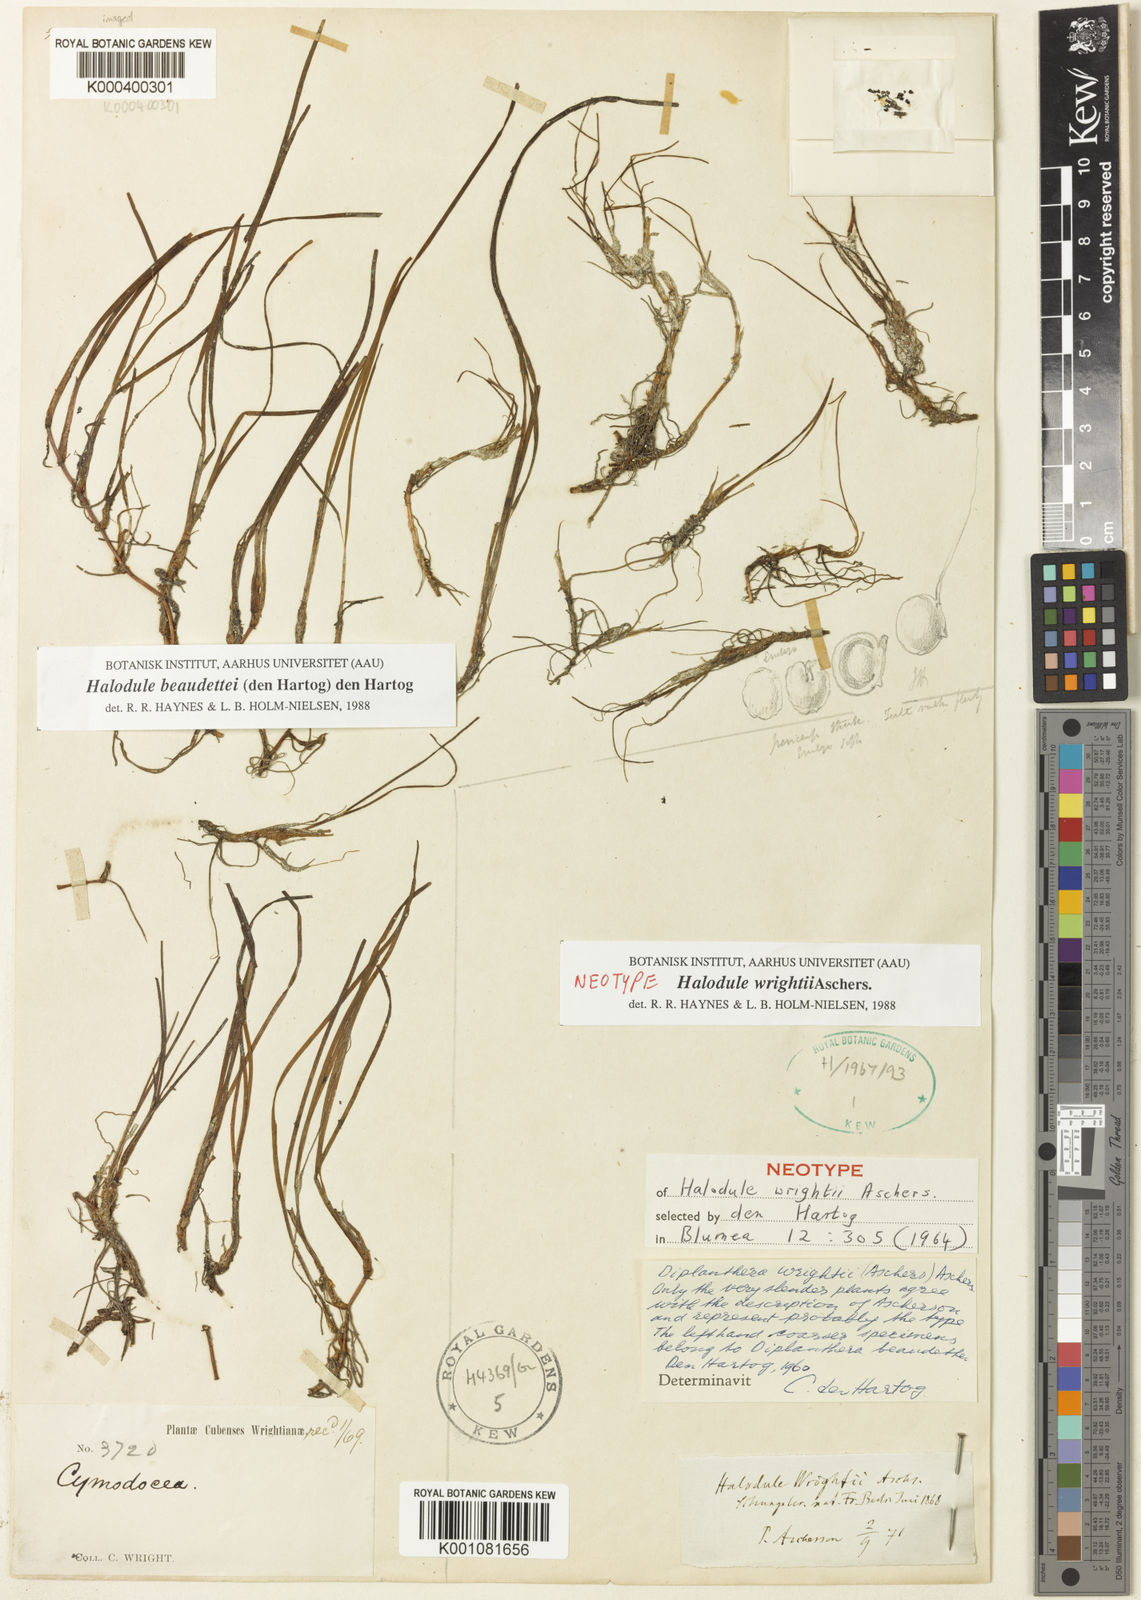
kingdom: Plantae
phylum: Tracheophyta
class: Liliopsida
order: Alismatales
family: Cymodoceaceae
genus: Halodule
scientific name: Halodule wrightii
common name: Shoalgrass
